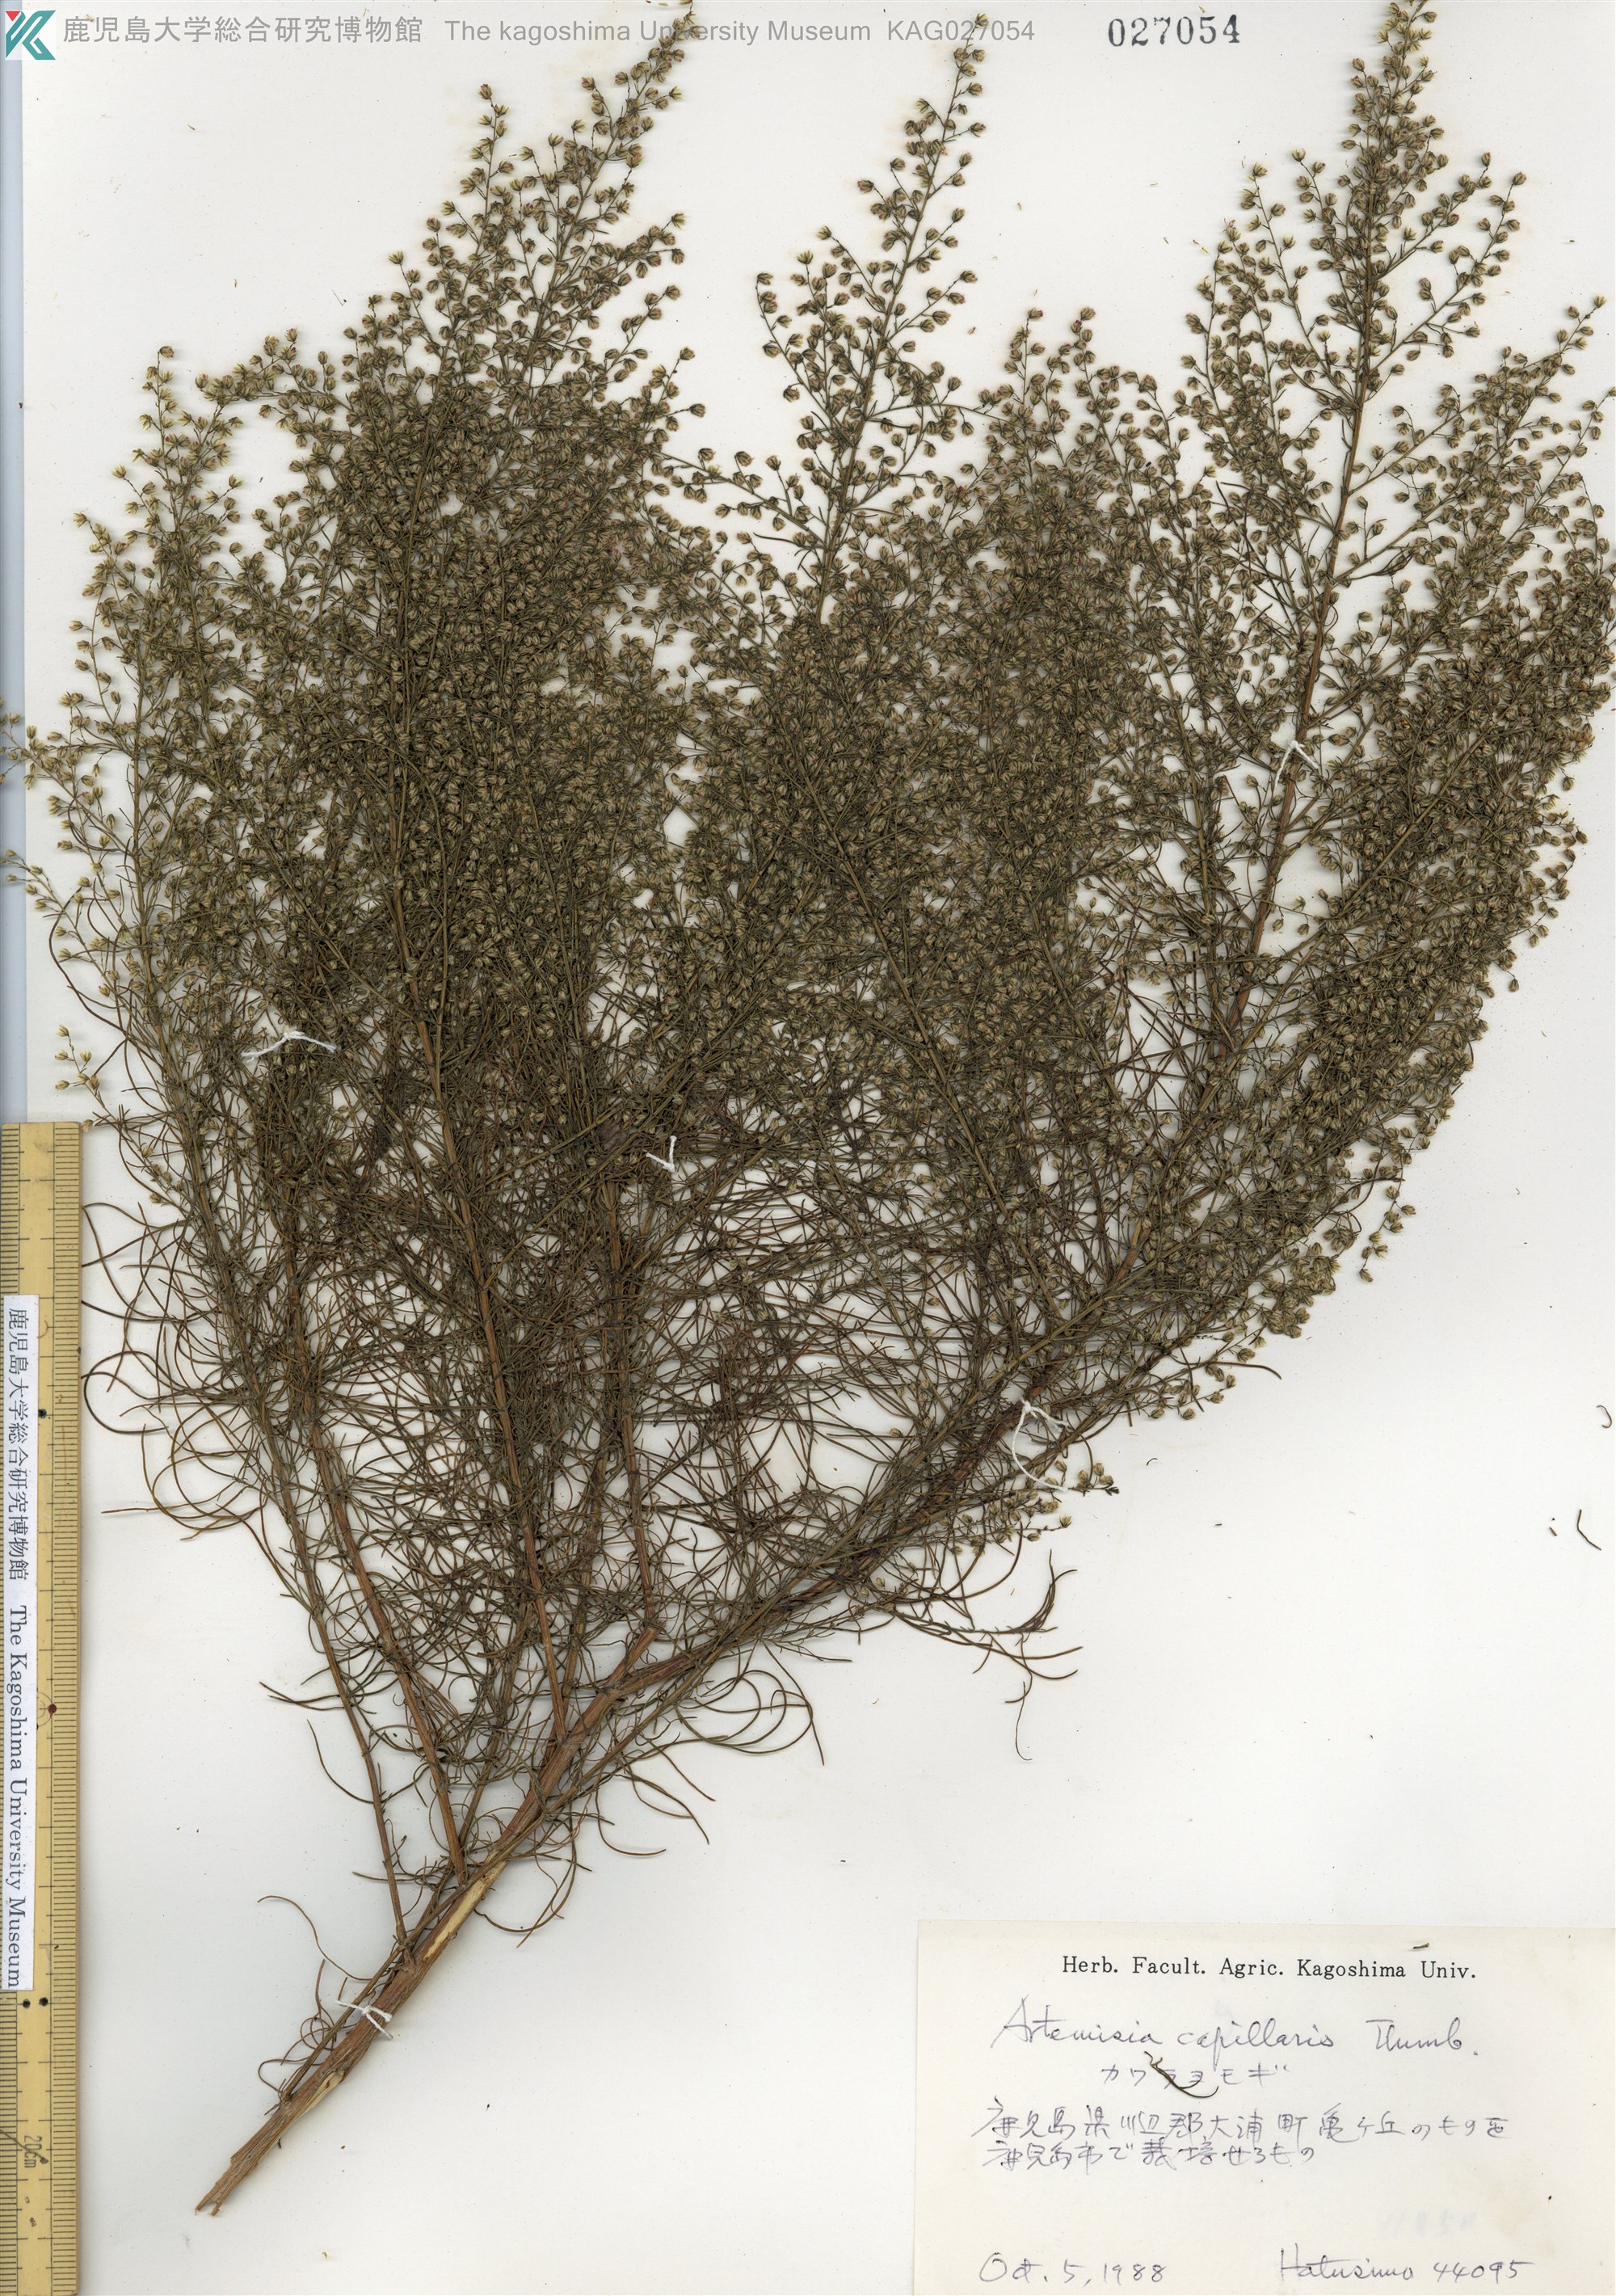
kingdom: Plantae
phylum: Tracheophyta
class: Magnoliopsida
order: Asterales
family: Asteraceae
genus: Artemisia
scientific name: Artemisia capillaris
